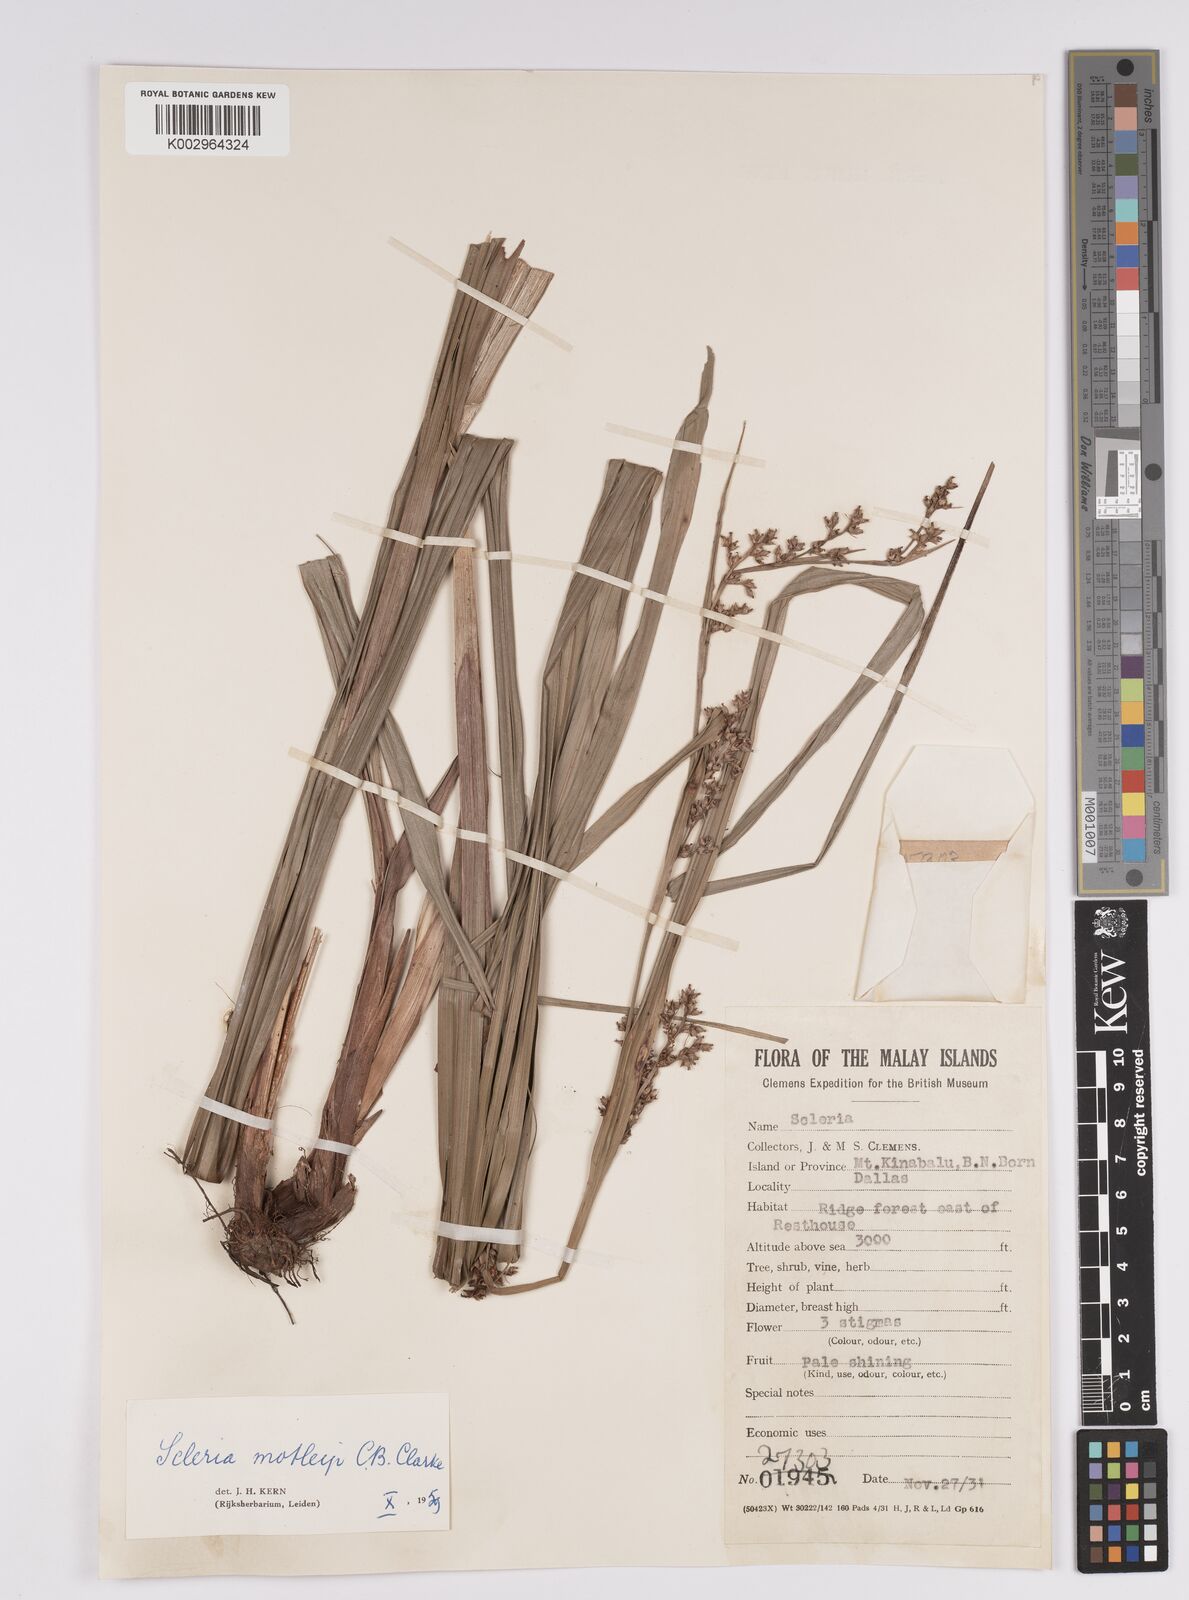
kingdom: Plantae
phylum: Tracheophyta
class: Liliopsida
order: Poales
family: Cyperaceae
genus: Scleria
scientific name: Scleria motleyi
